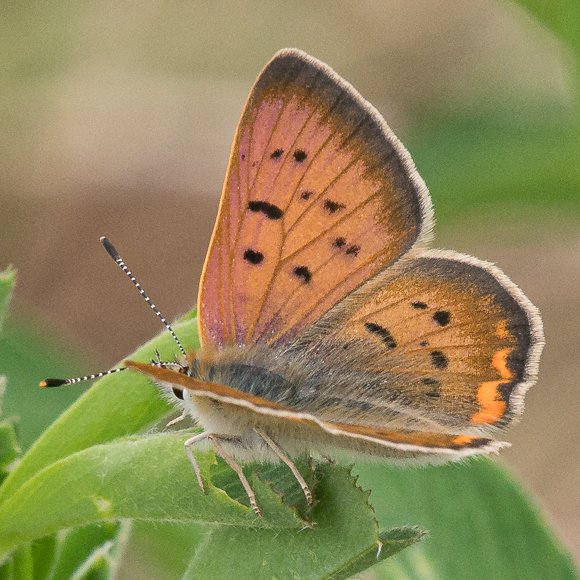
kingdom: Animalia
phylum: Arthropoda
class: Insecta
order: Lepidoptera
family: Sesiidae
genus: Sesia
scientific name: Sesia Lycaena helloides
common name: Purplish Copper
